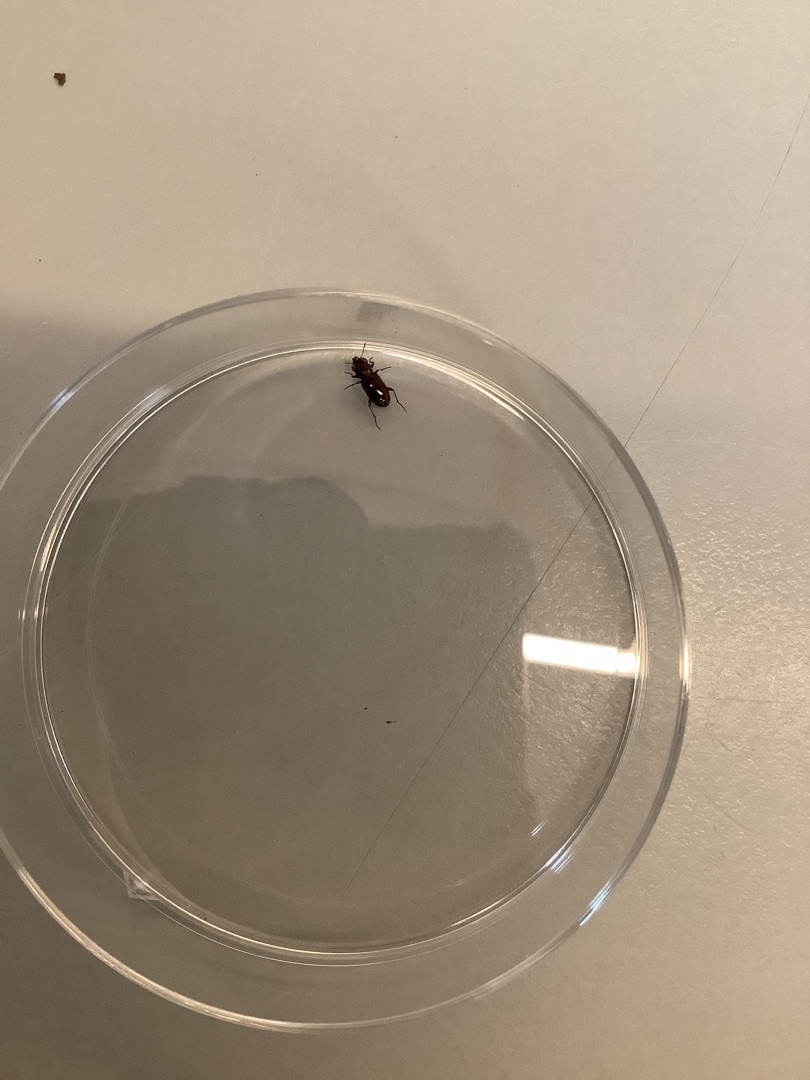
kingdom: Animalia
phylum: Arthropoda
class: Insecta
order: Coleoptera
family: Carabidae
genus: Notiophilus
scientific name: Notiophilus
